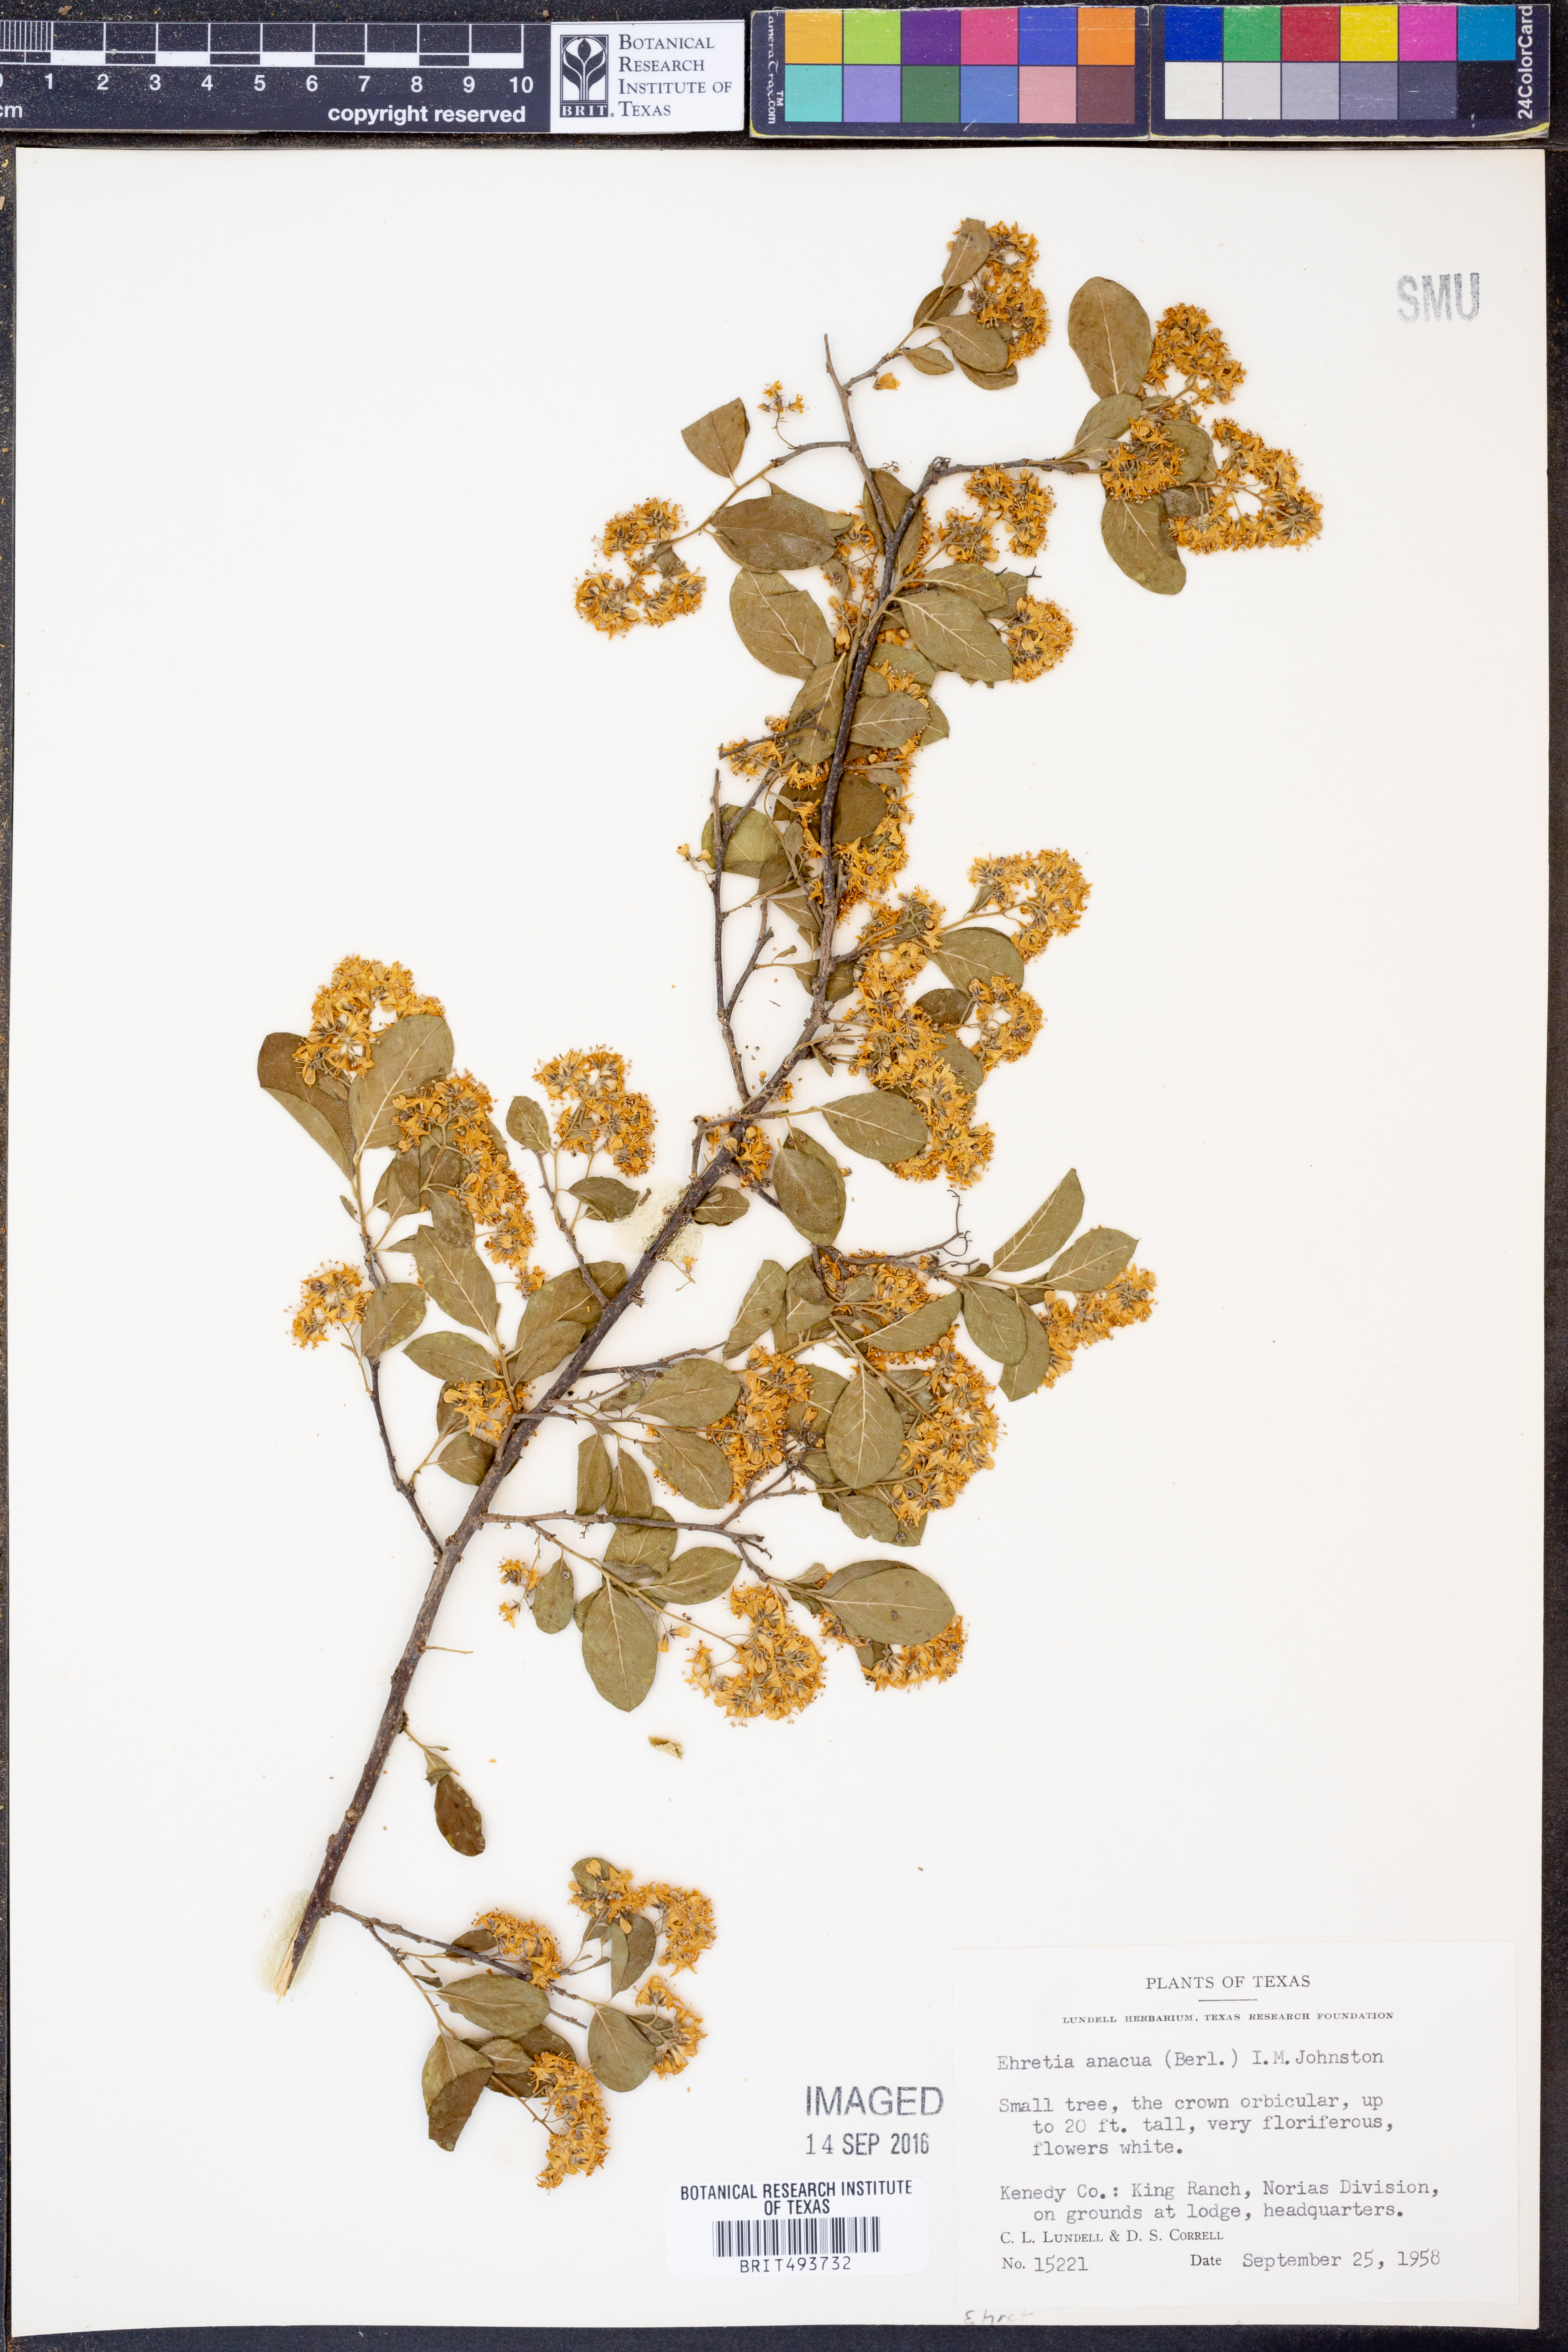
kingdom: Plantae
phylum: Tracheophyta
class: Magnoliopsida
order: Boraginales
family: Ehretiaceae
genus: Ehretia
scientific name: Ehretia anacua
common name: Sugarberry
